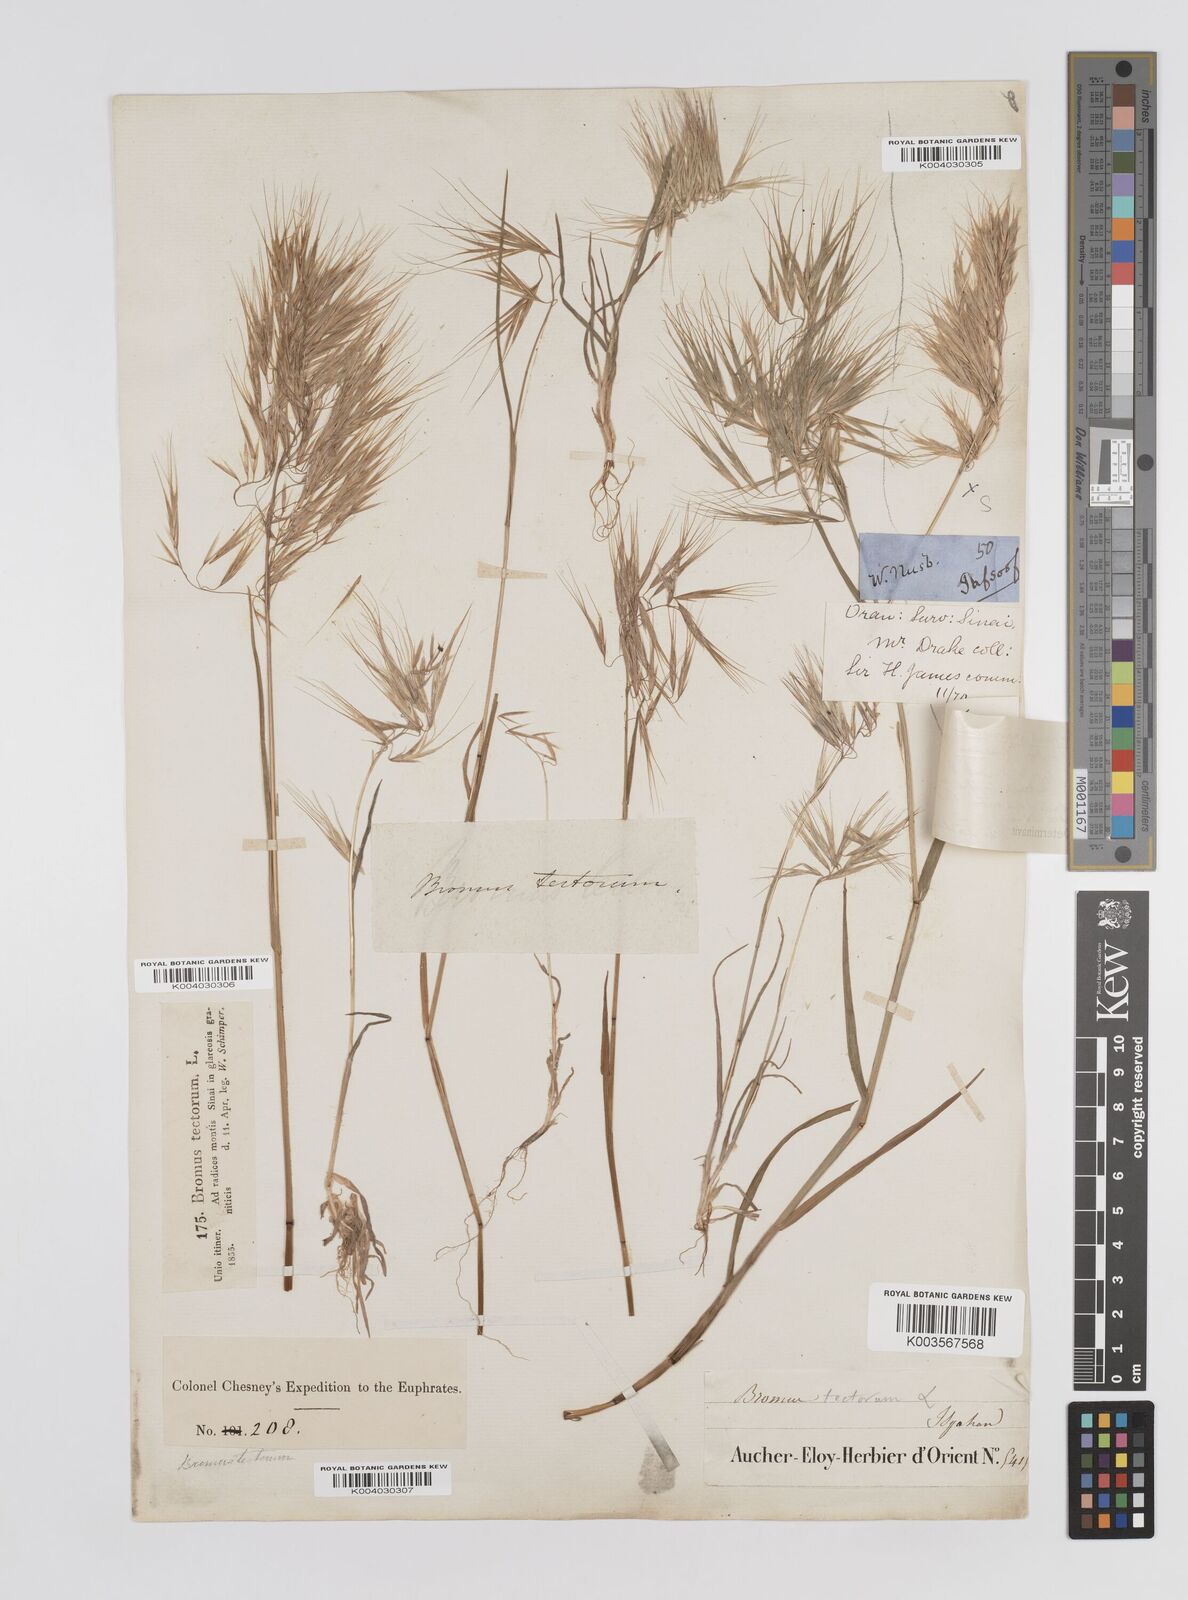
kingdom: Plantae
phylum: Tracheophyta
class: Liliopsida
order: Poales
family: Poaceae
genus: Bromus
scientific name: Bromus pectinatus
